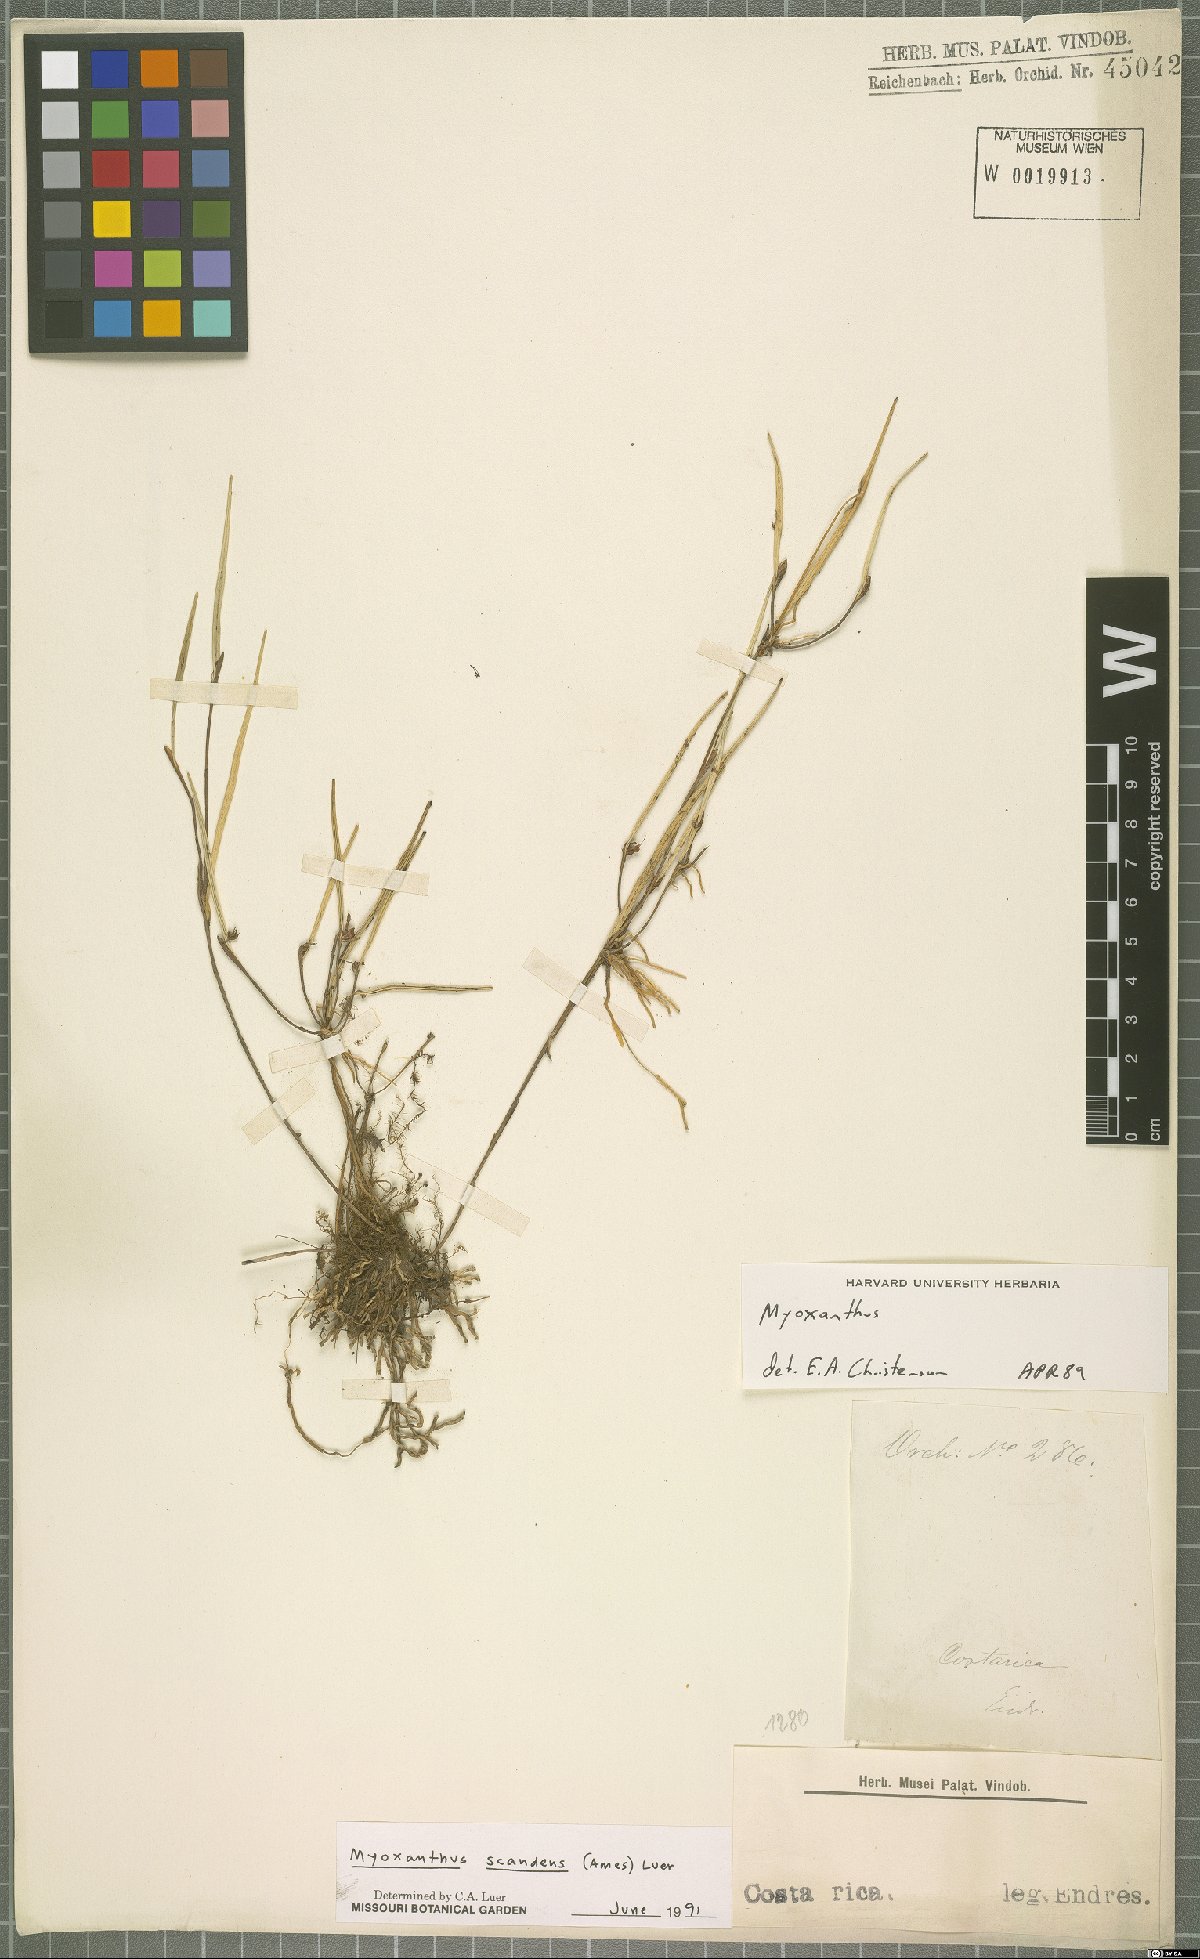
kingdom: Plantae
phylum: Tracheophyta
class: Liliopsida
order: Asparagales
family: Orchidaceae
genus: Myoxanthus
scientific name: Myoxanthus scandens
